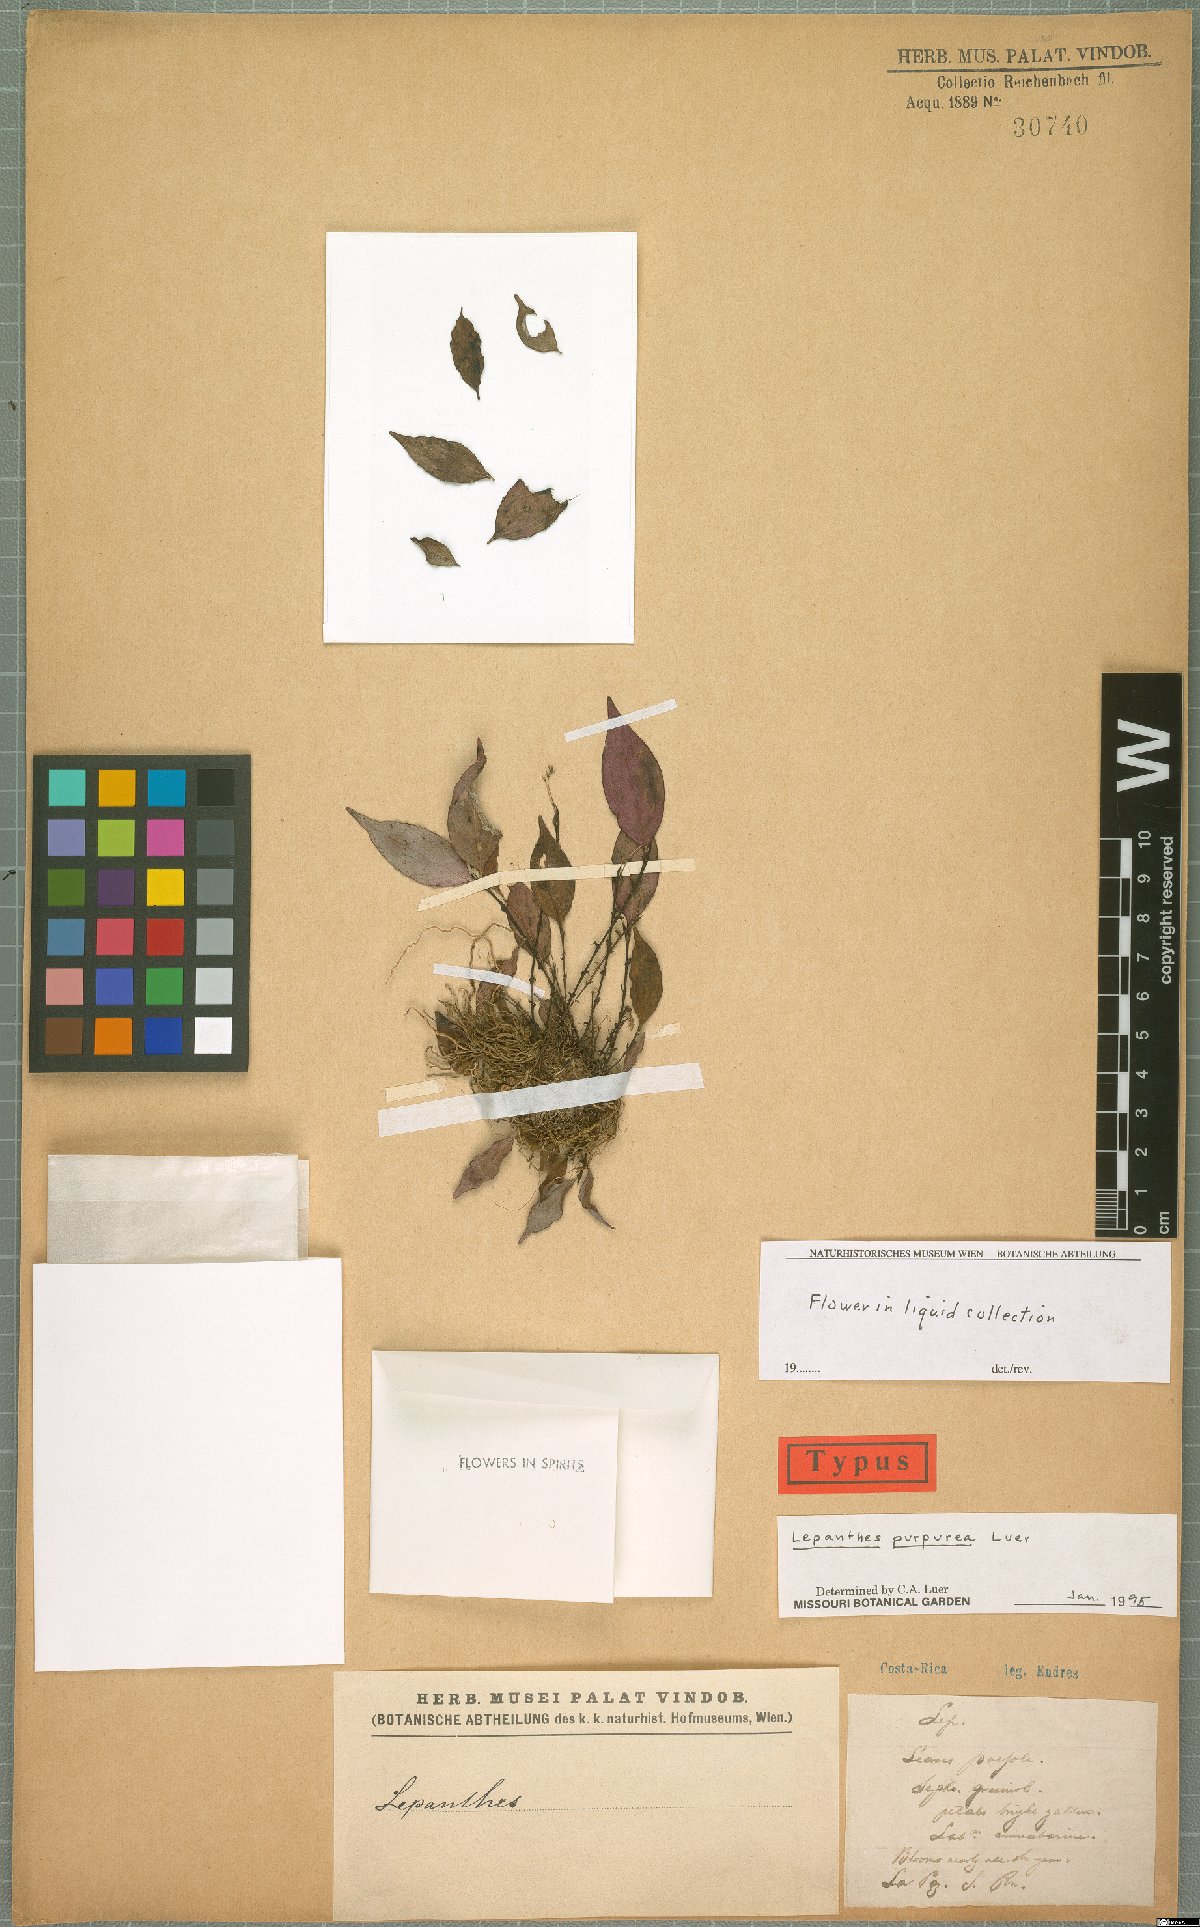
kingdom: Plantae
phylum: Tracheophyta
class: Liliopsida
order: Asparagales
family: Orchidaceae
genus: Lepanthes
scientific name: Lepanthes purpurea
